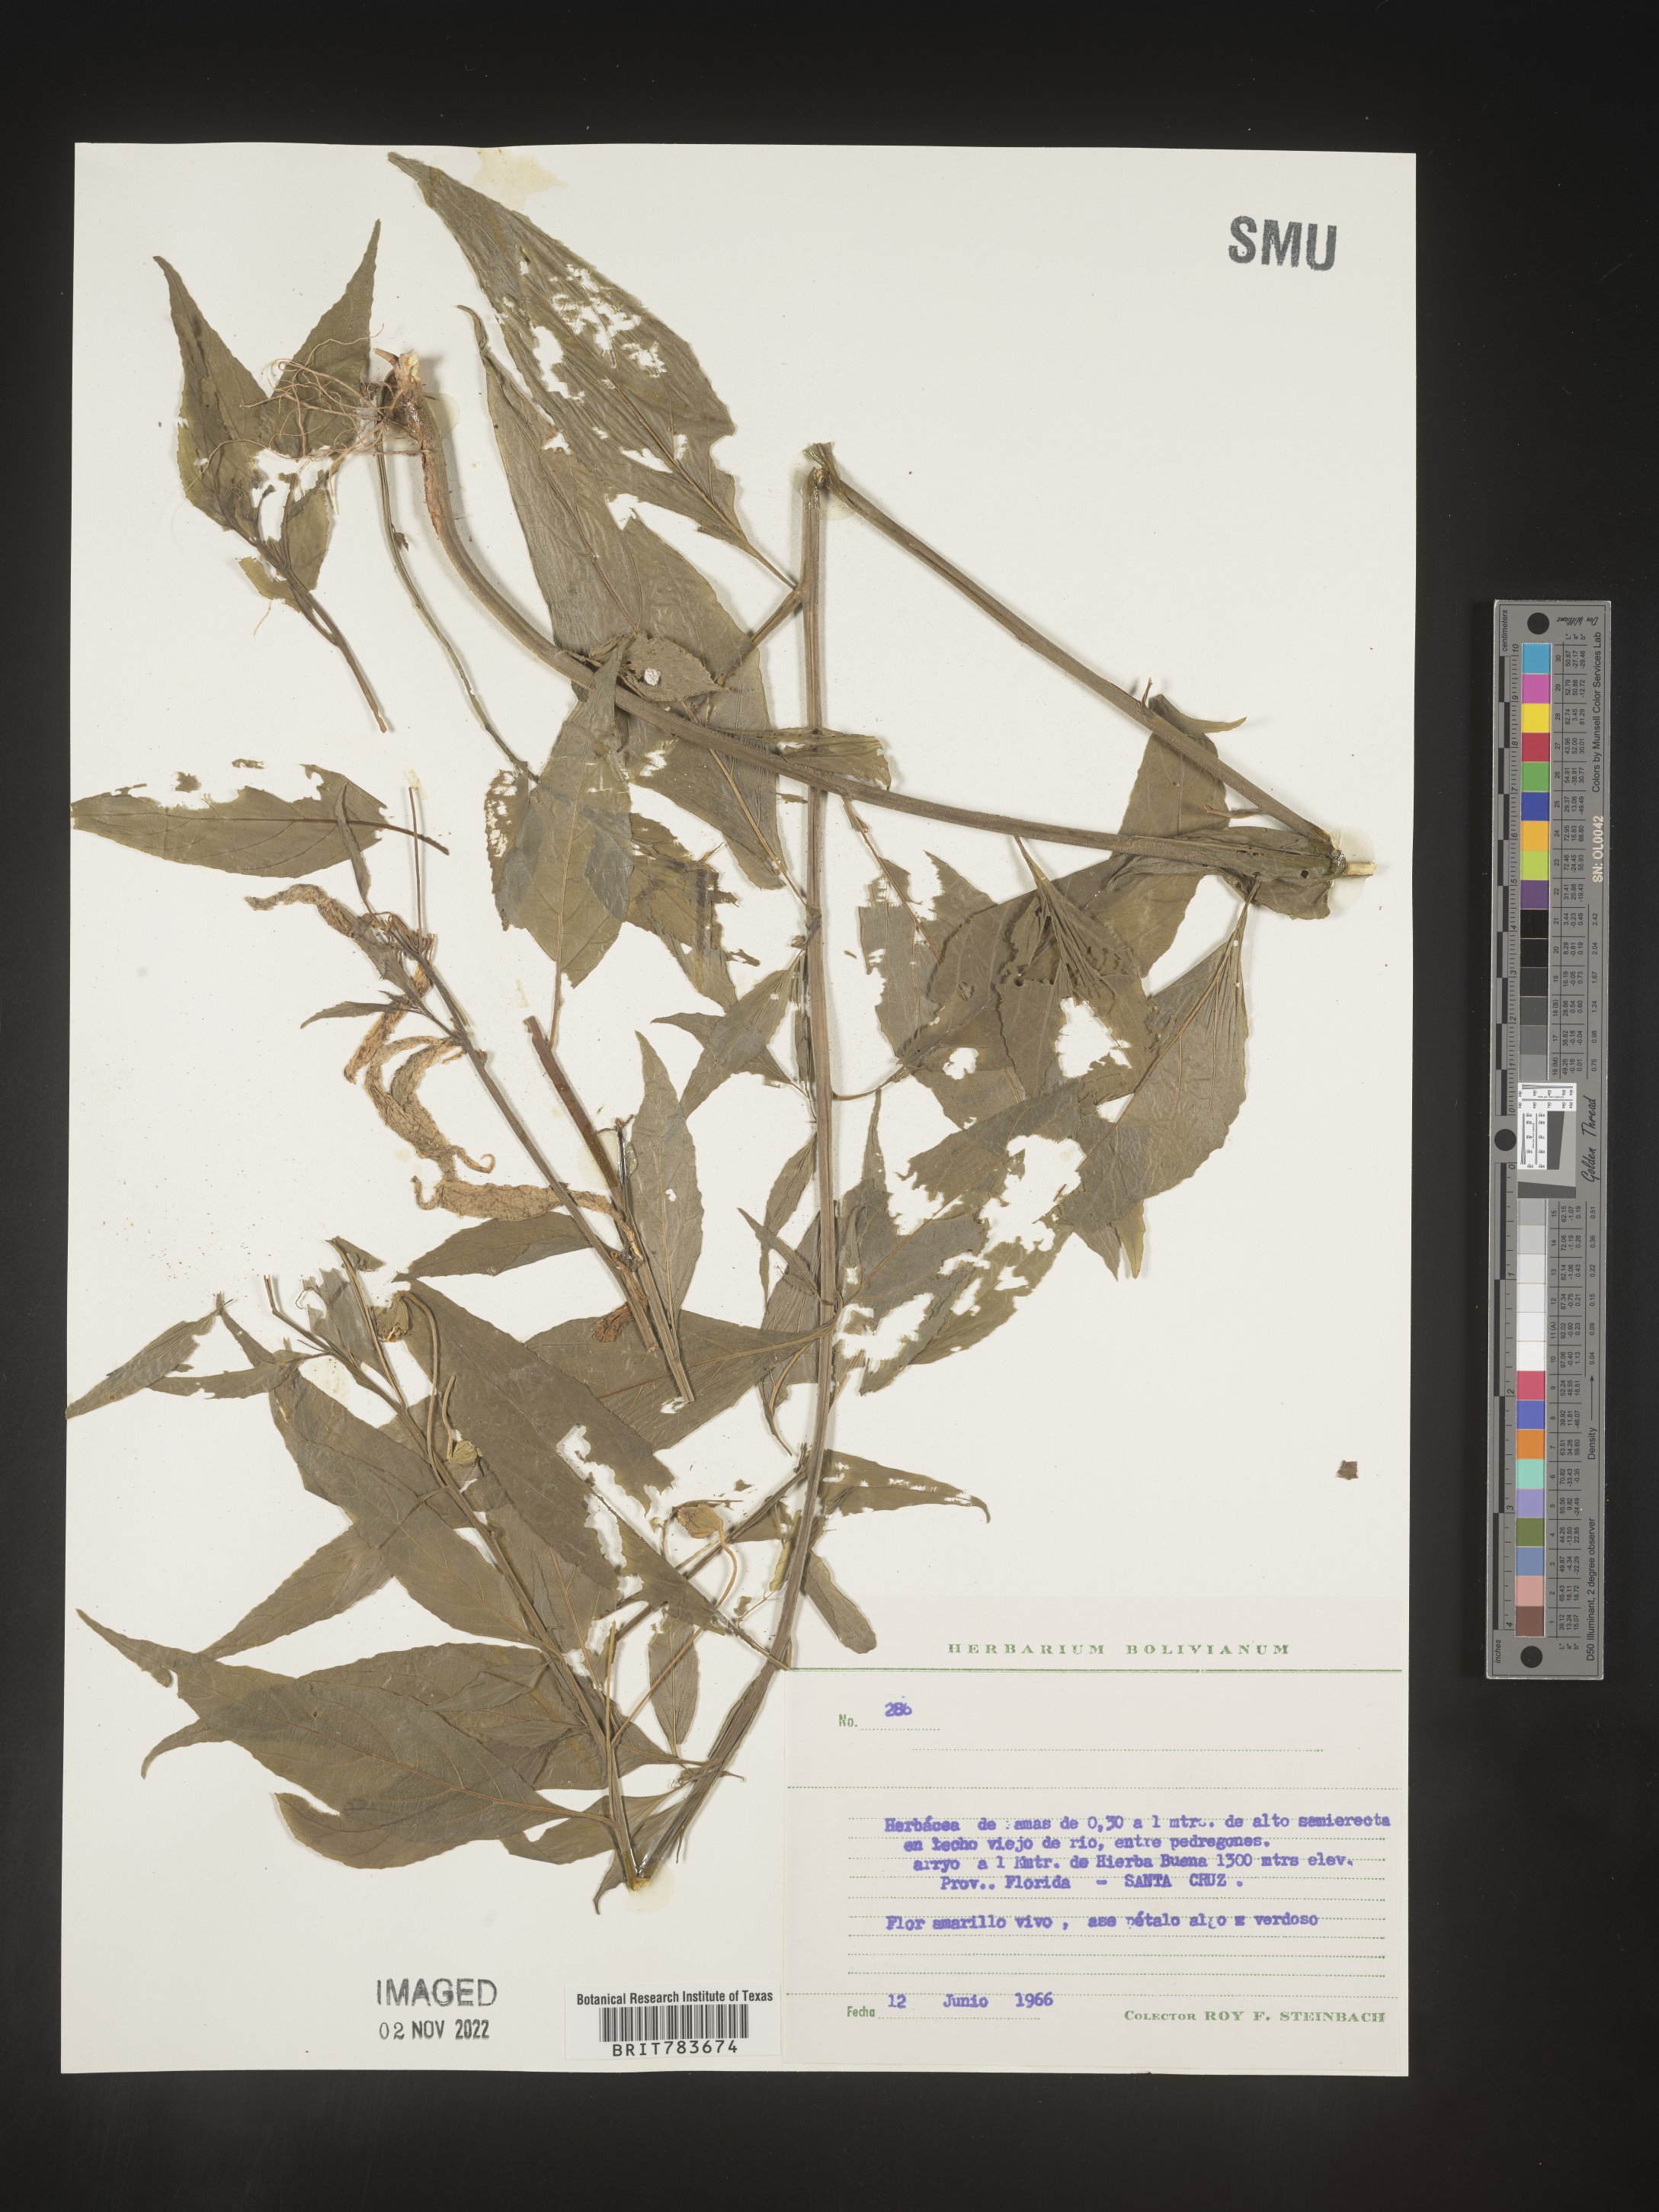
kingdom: Plantae
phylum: Tracheophyta
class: Magnoliopsida
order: Asterales
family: Campanulaceae
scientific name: Campanulaceae
